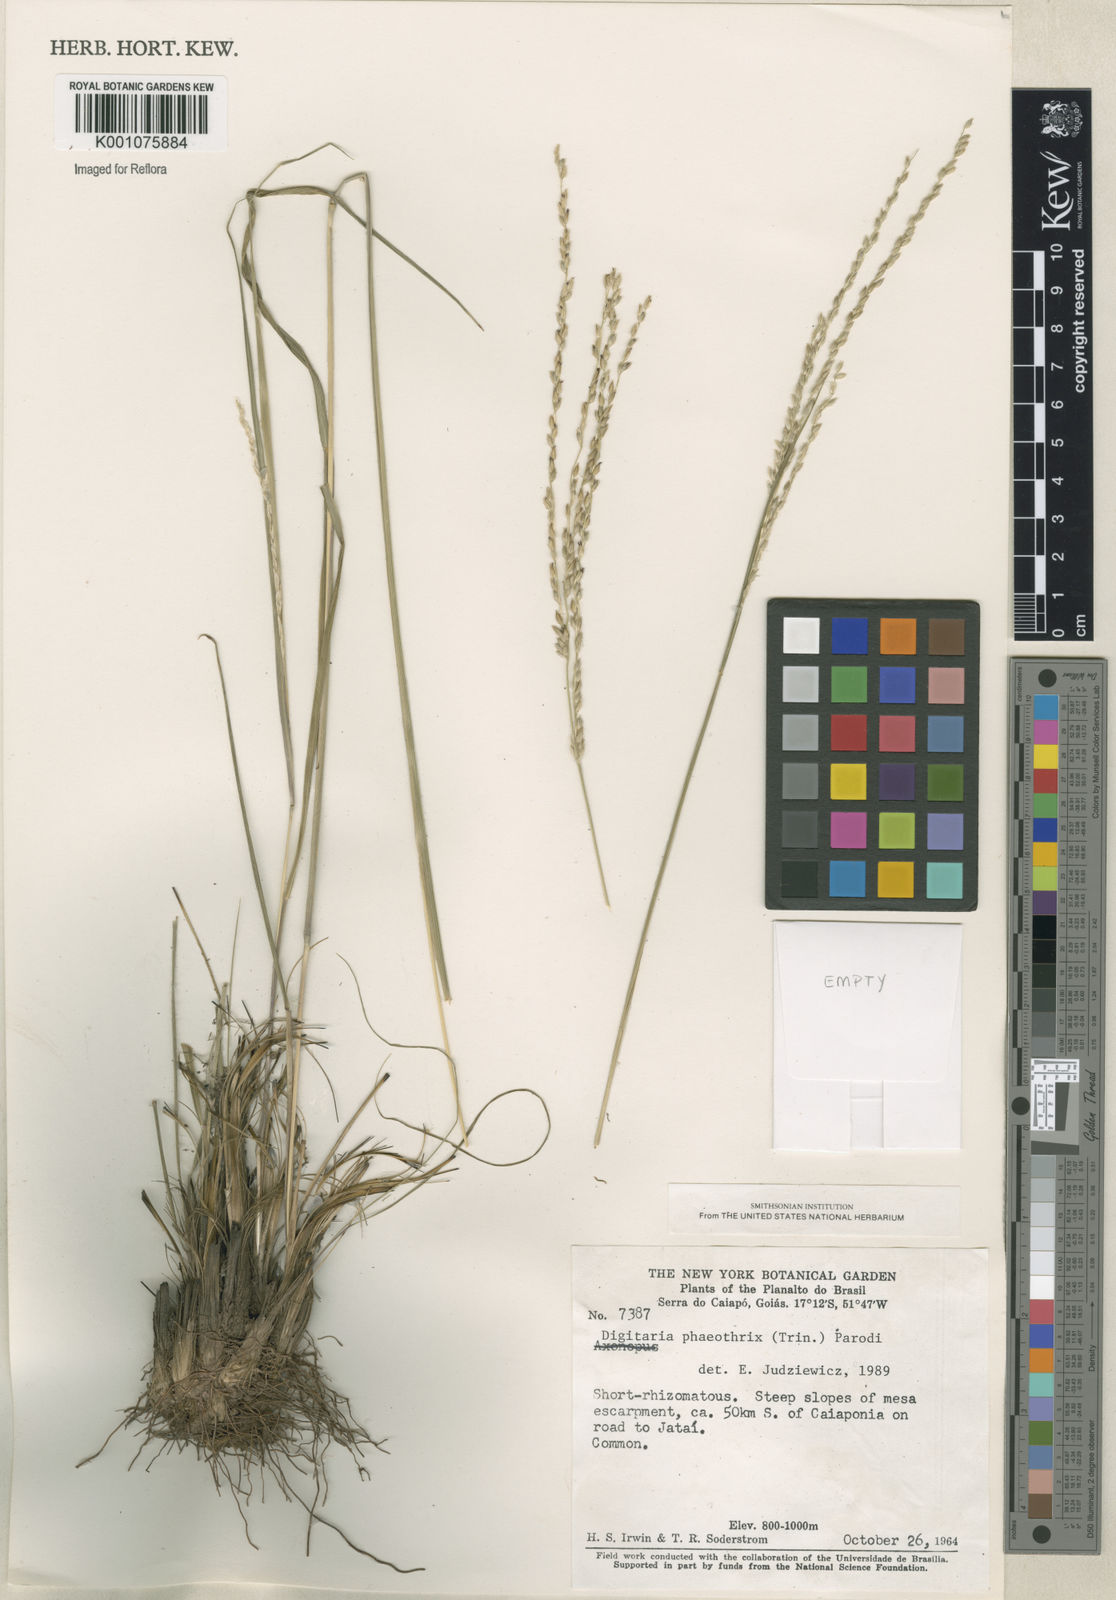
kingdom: Plantae
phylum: Tracheophyta
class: Liliopsida
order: Poales
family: Poaceae
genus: Digitaria
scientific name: Digitaria neesiana
